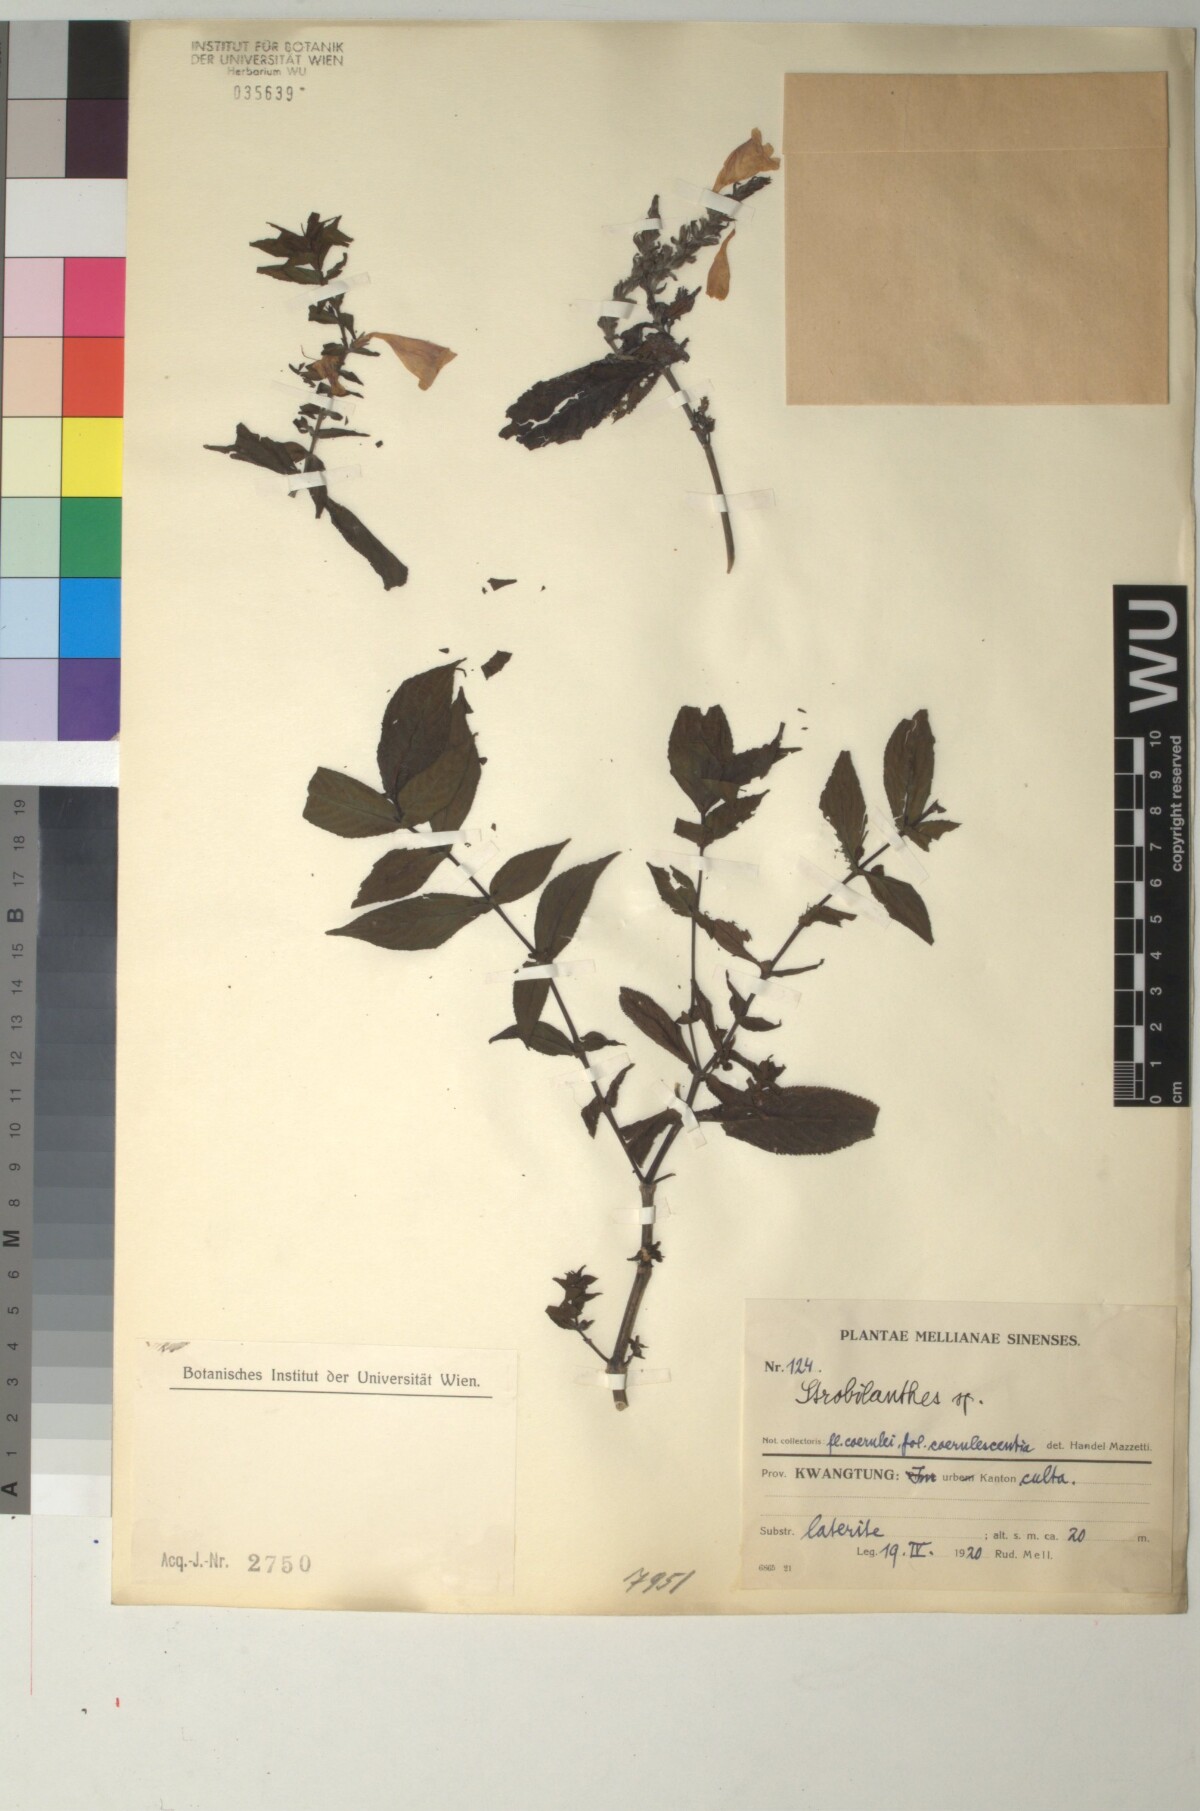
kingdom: Plantae
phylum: Tracheophyta
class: Magnoliopsida
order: Lamiales
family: Acanthaceae
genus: Strobilanthes
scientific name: Strobilanthes
